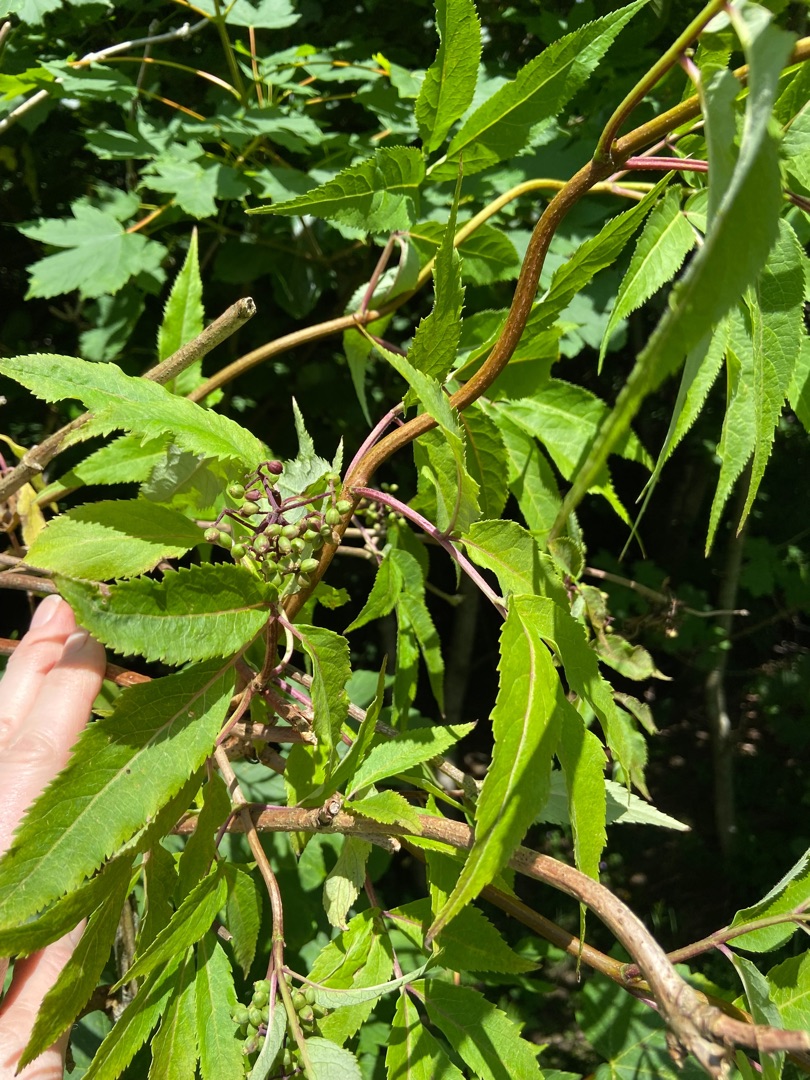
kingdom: Plantae
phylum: Tracheophyta
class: Magnoliopsida
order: Dipsacales
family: Viburnaceae
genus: Sambucus
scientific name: Sambucus racemosa
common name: Drue-hyld
